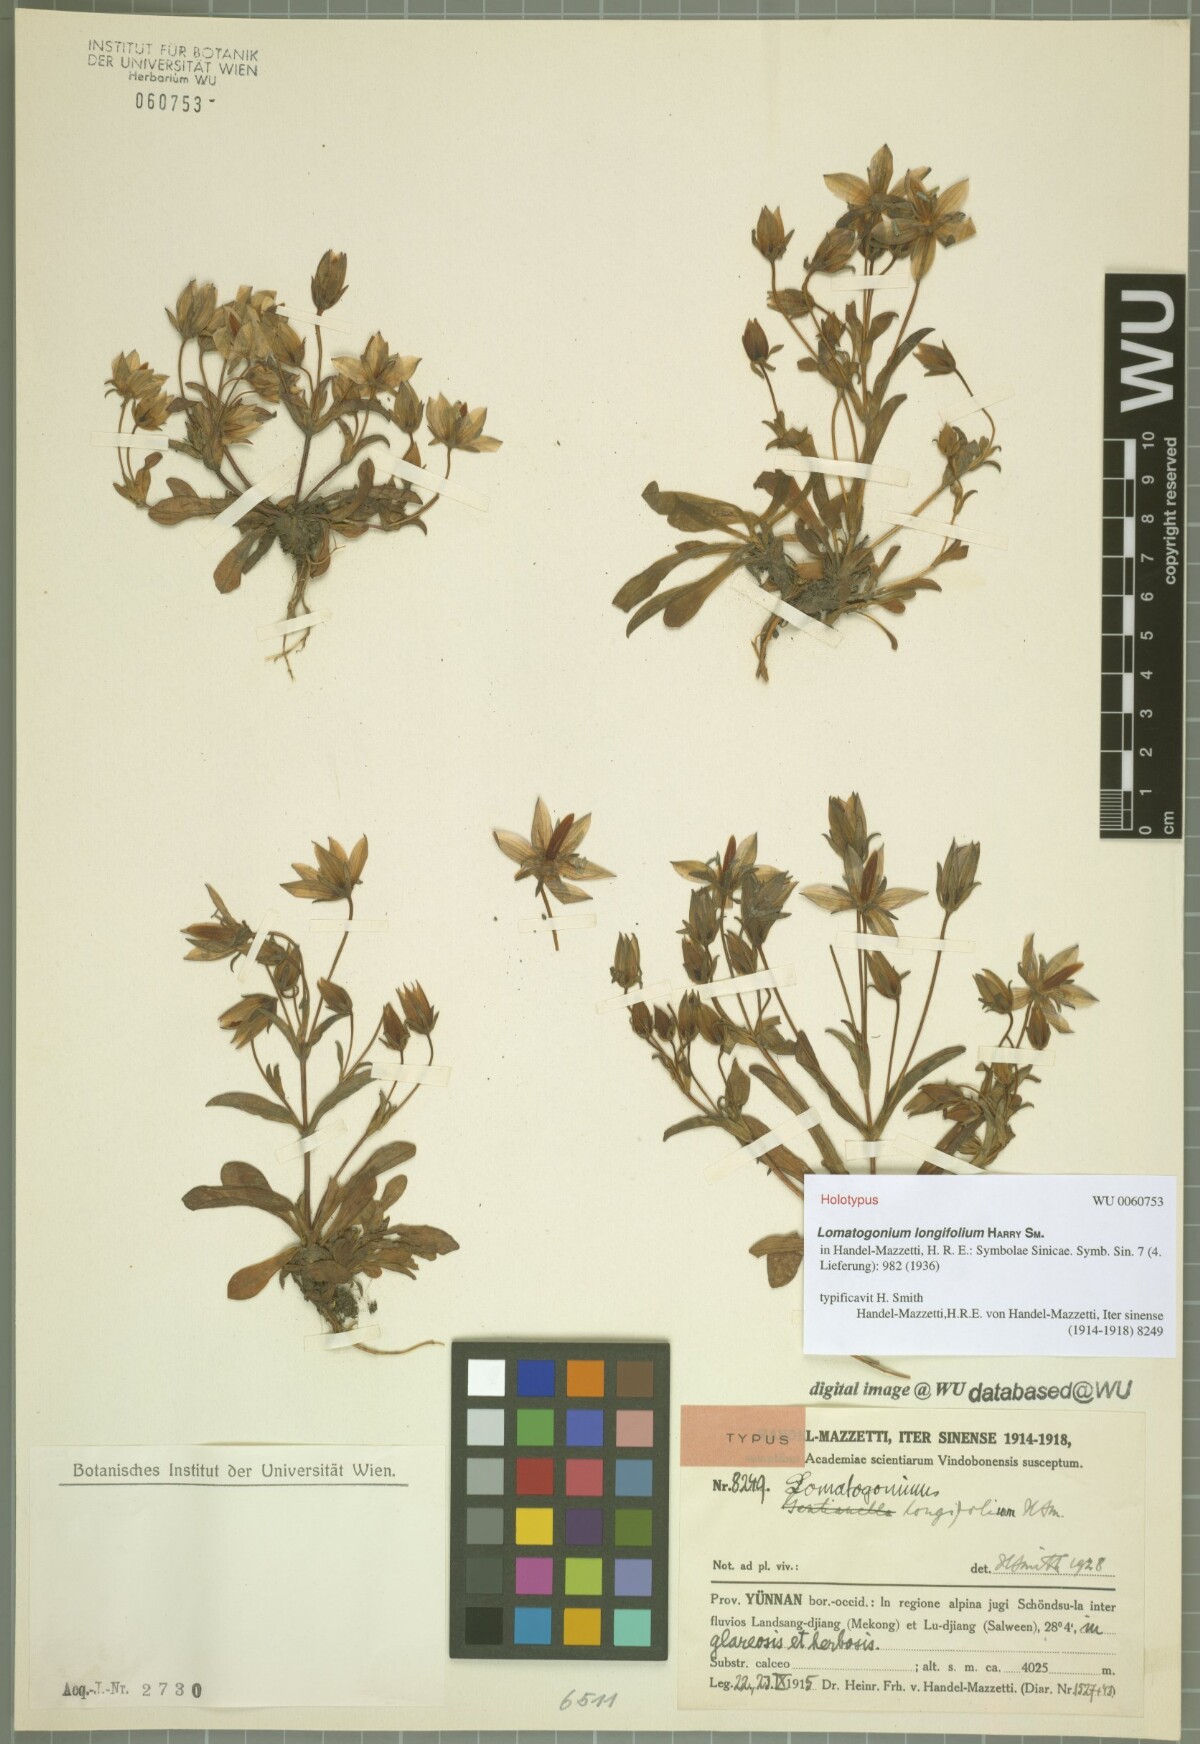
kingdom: Plantae
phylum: Tracheophyta
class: Magnoliopsida
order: Gentianales
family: Gentianaceae
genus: Lomatogonium
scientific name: Lomatogonium longifolium
